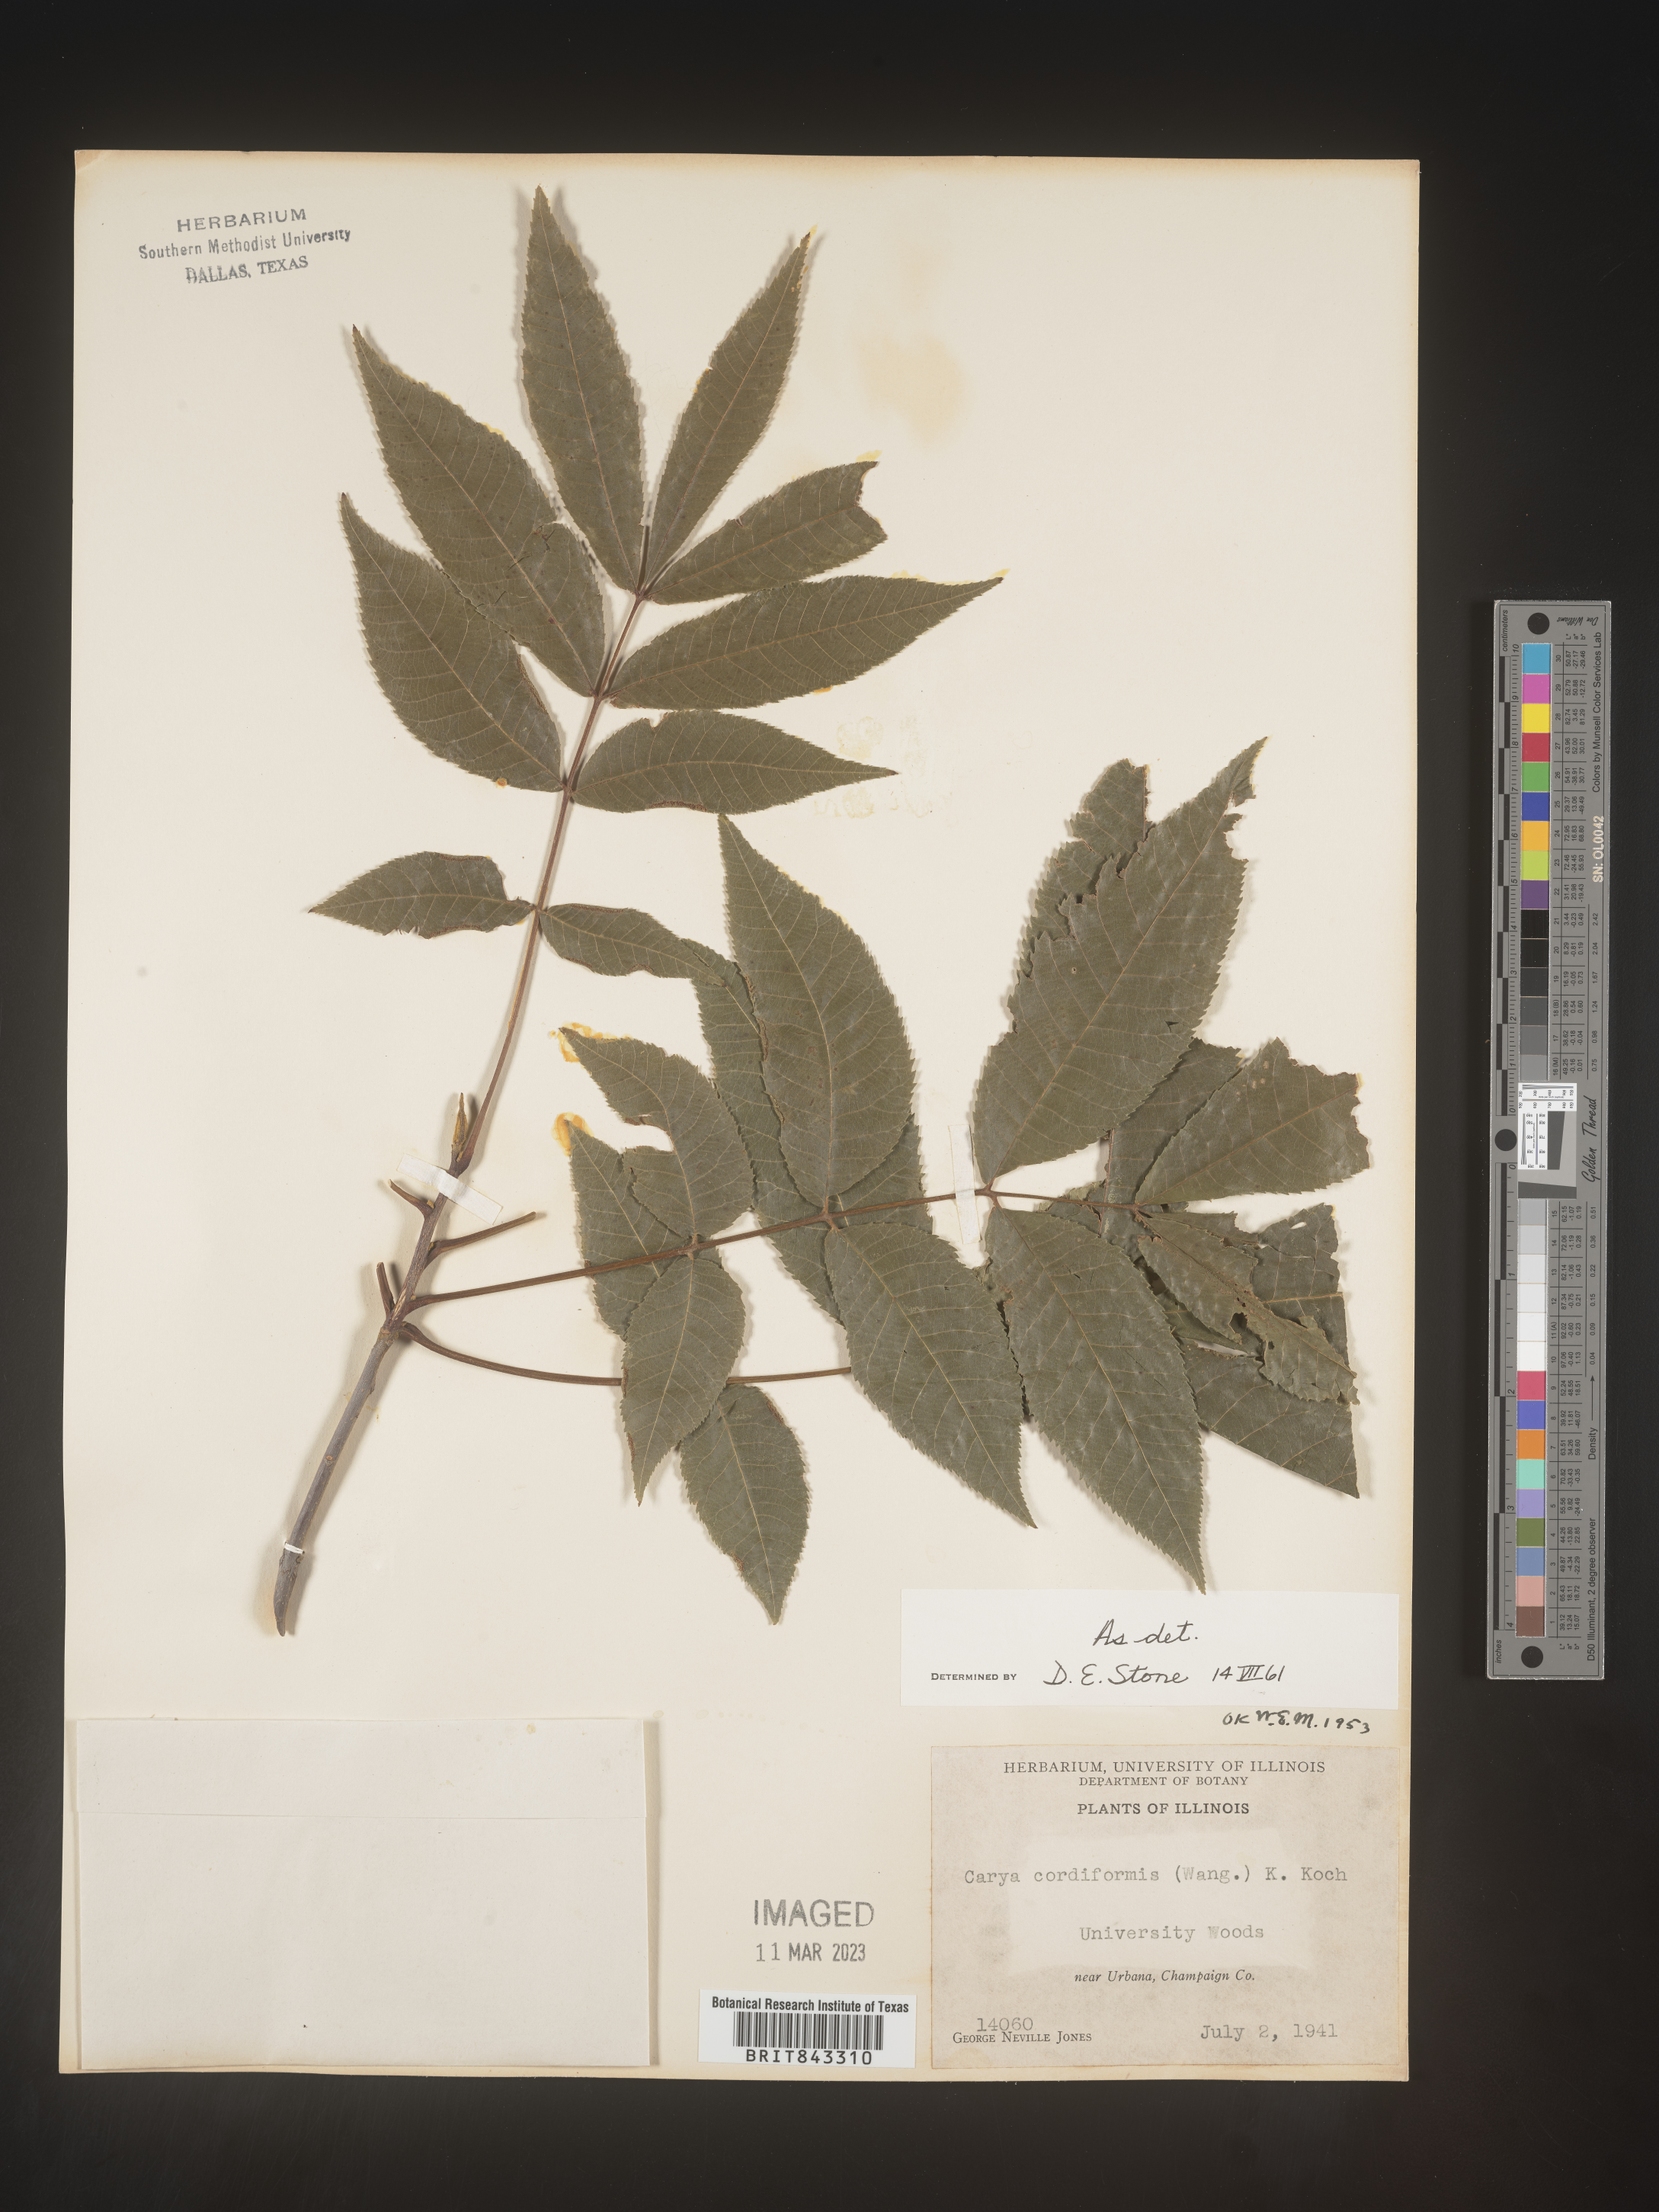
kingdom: Plantae
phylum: Tracheophyta
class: Magnoliopsida
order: Fagales
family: Juglandaceae
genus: Carya
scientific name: Carya cordiformis
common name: Bitternut hickory
